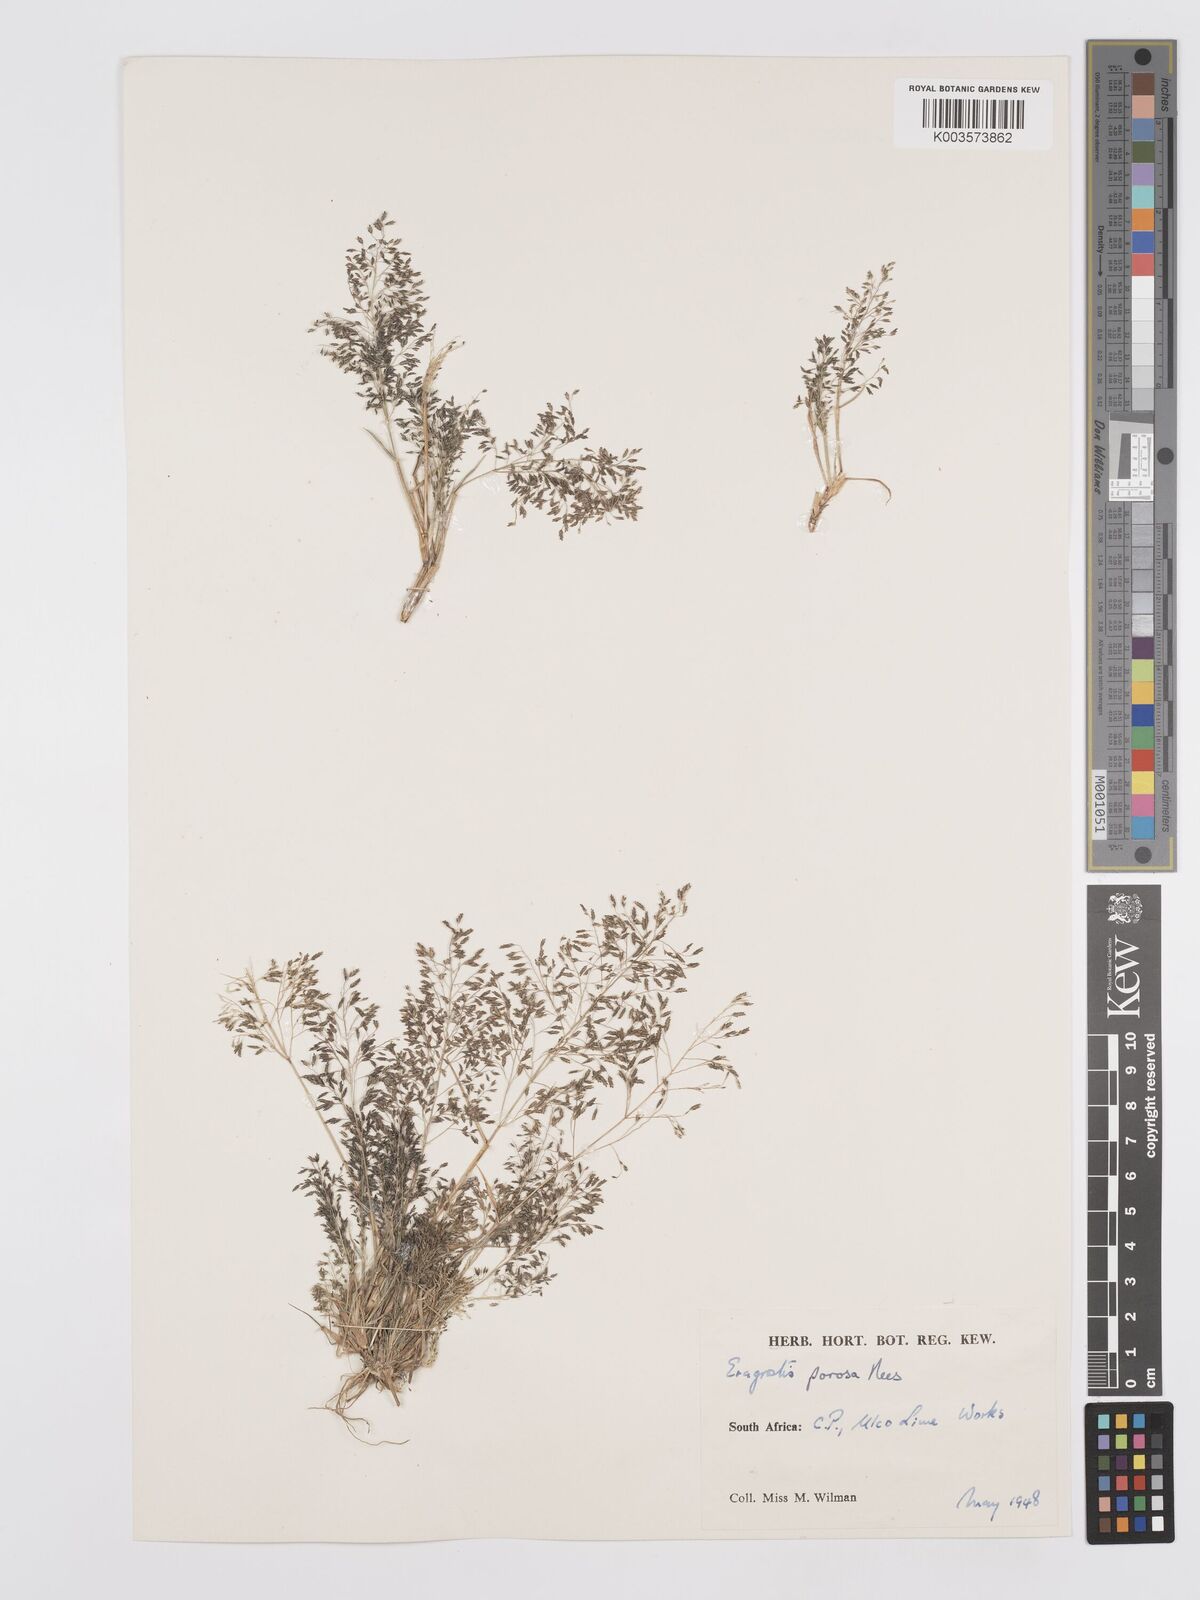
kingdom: Plantae
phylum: Tracheophyta
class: Liliopsida
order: Poales
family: Poaceae
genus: Eragrostis
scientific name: Eragrostis porosa
